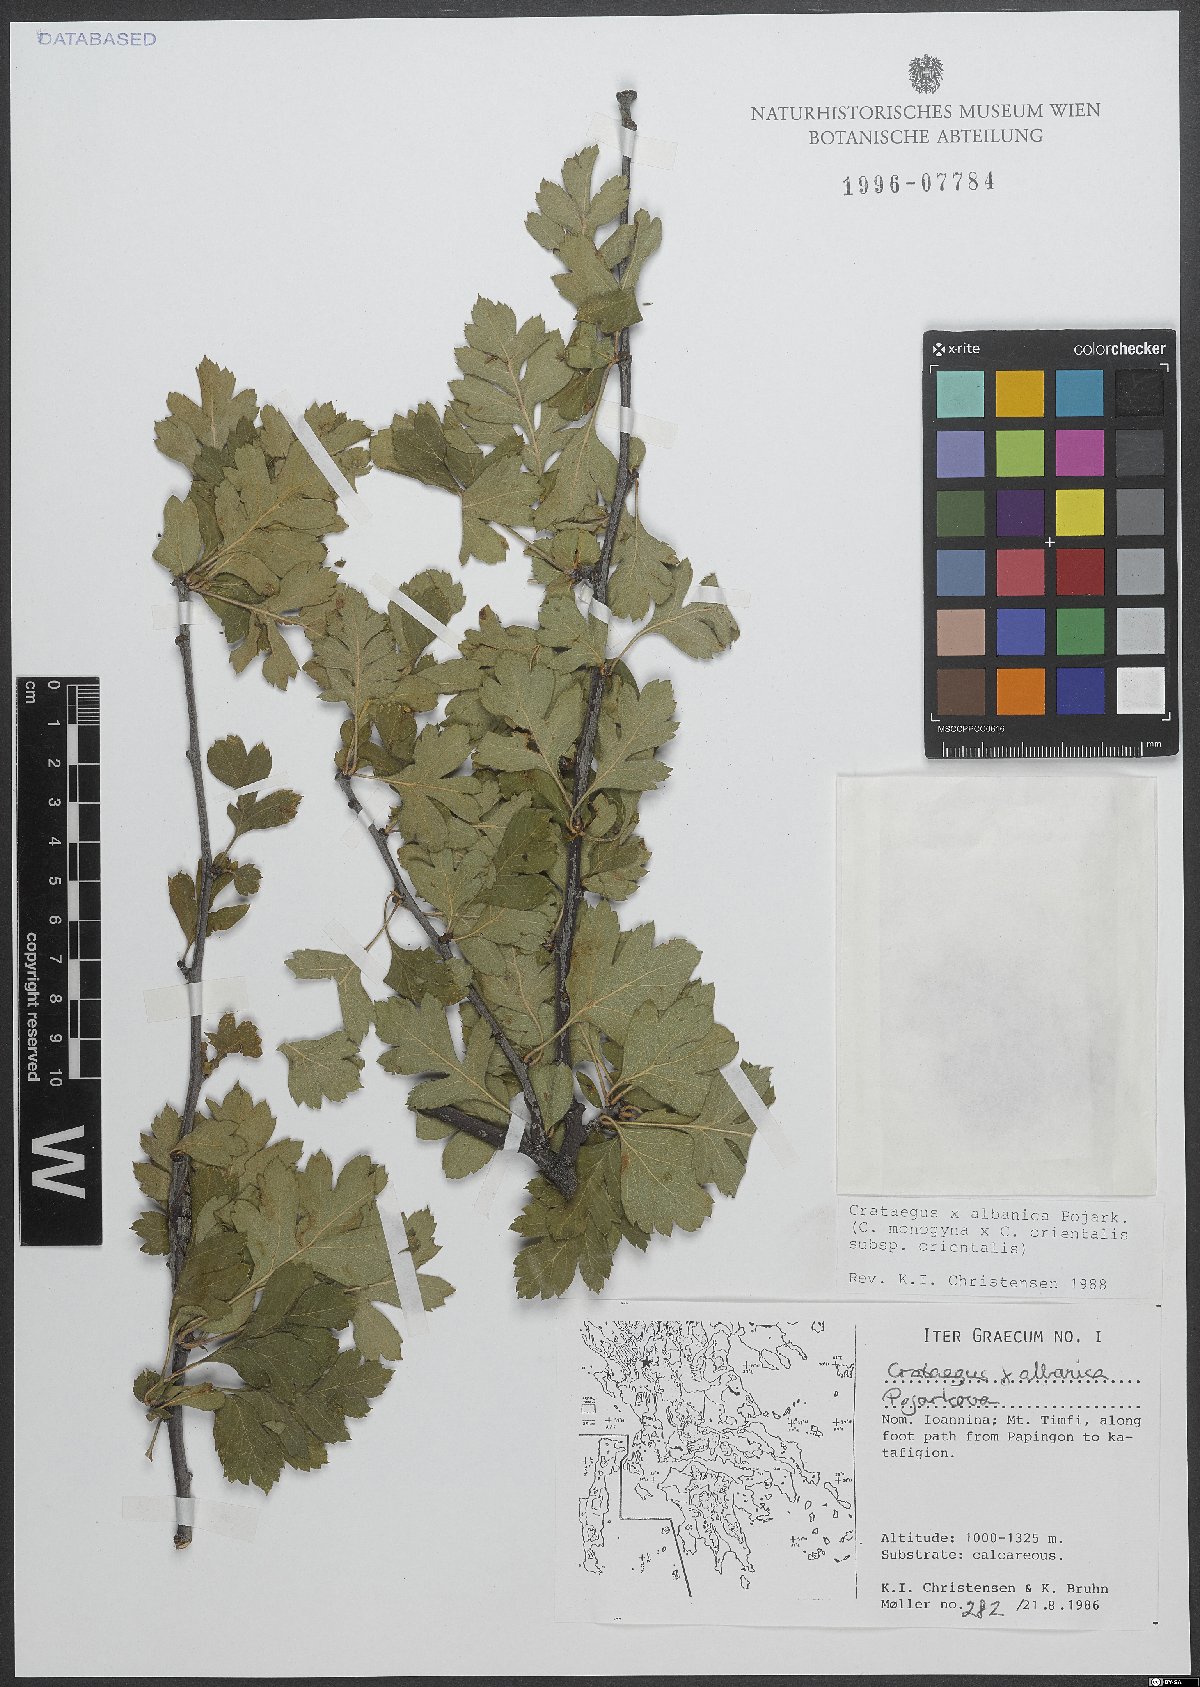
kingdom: Plantae
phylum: Tracheophyta
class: Magnoliopsida
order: Rosales
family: Rosaceae
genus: Crataegus
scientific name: Crataegus albanica
